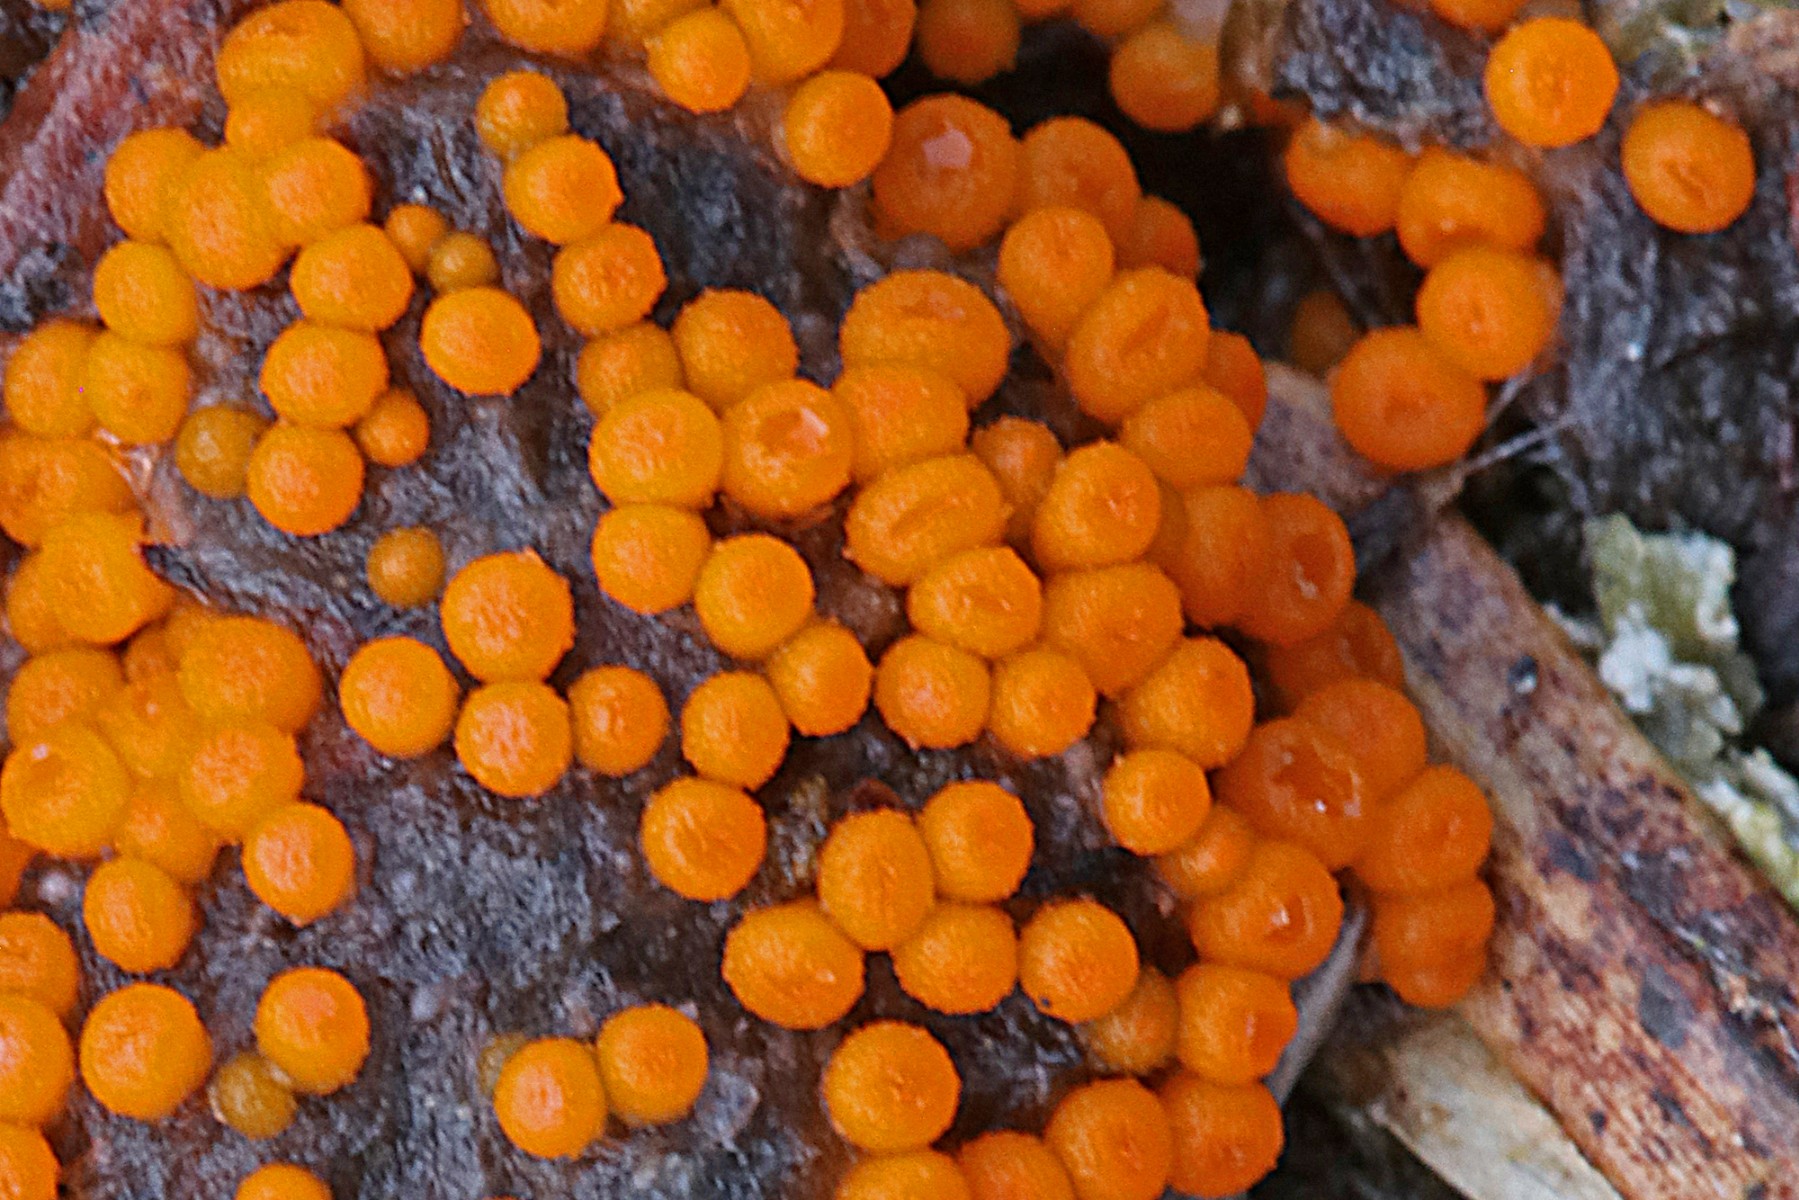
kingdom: Fungi
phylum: Ascomycota
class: Pezizomycetes
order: Pezizales
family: Pyronemataceae
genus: Byssonectria
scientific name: Byssonectria terrestris
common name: hjortebæger
